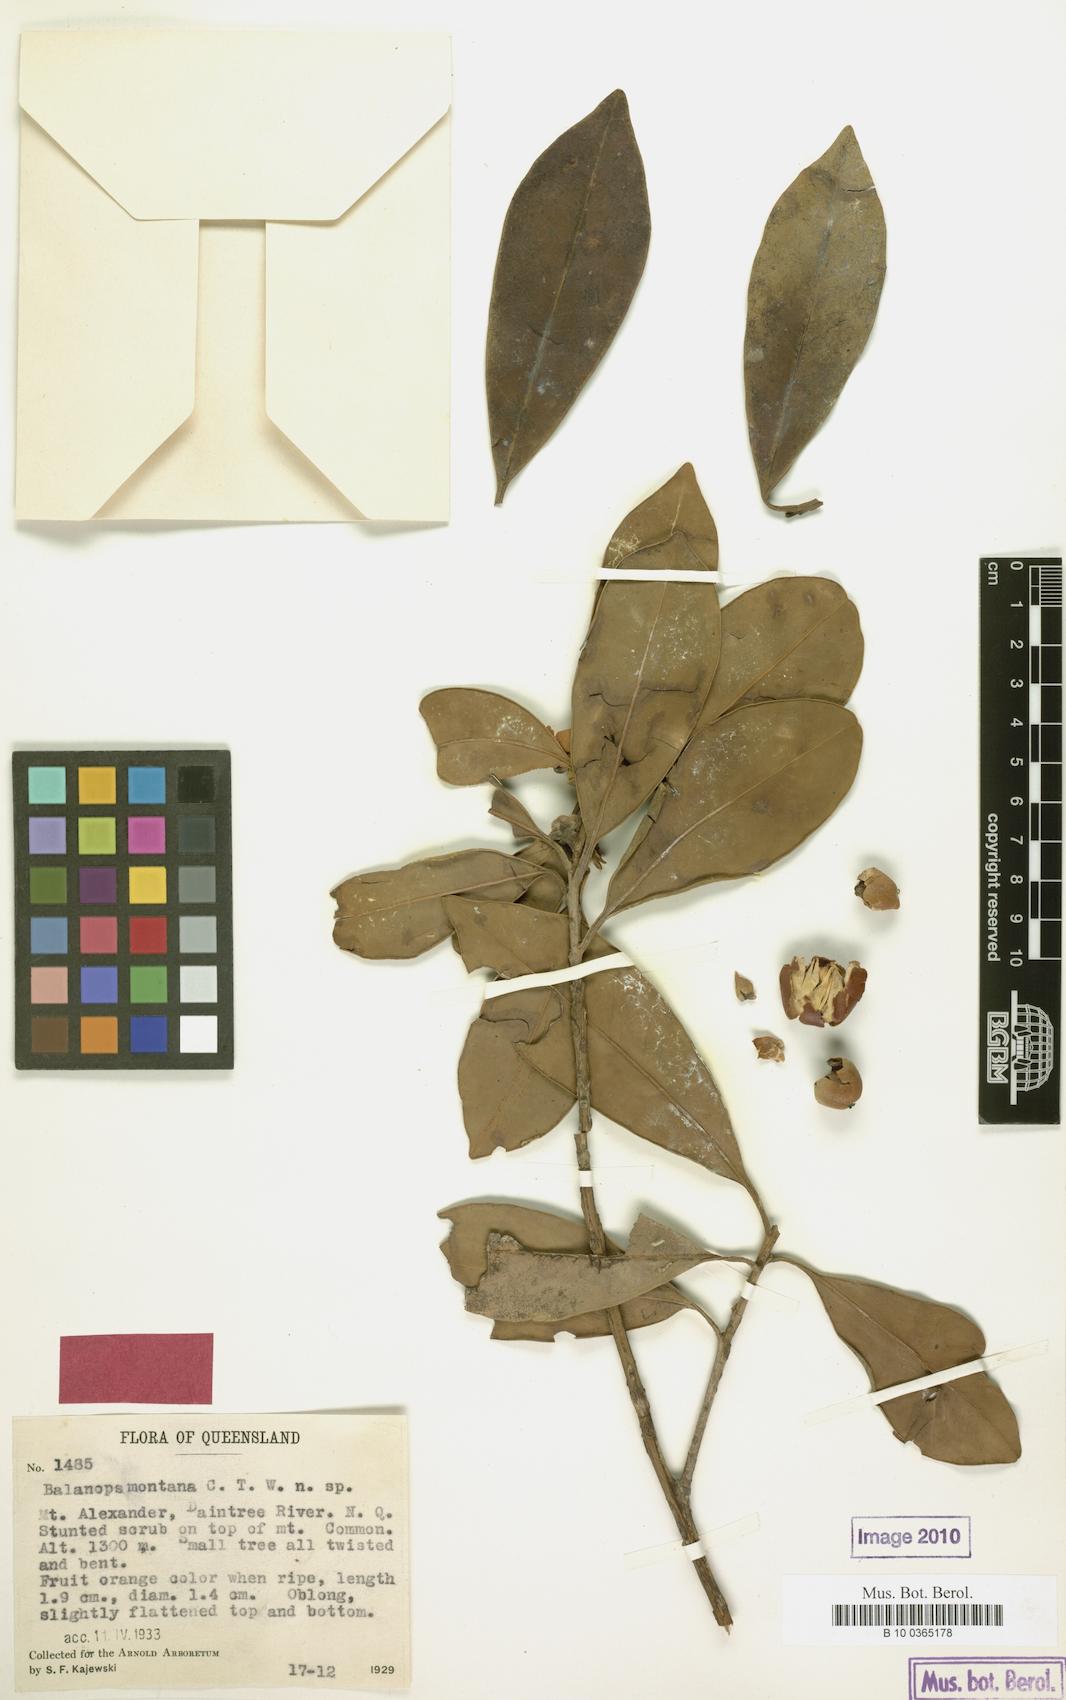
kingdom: Plantae
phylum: Tracheophyta
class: Magnoliopsida
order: Malpighiales
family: Balanopaceae
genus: Balanops
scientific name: Balanops australiana
